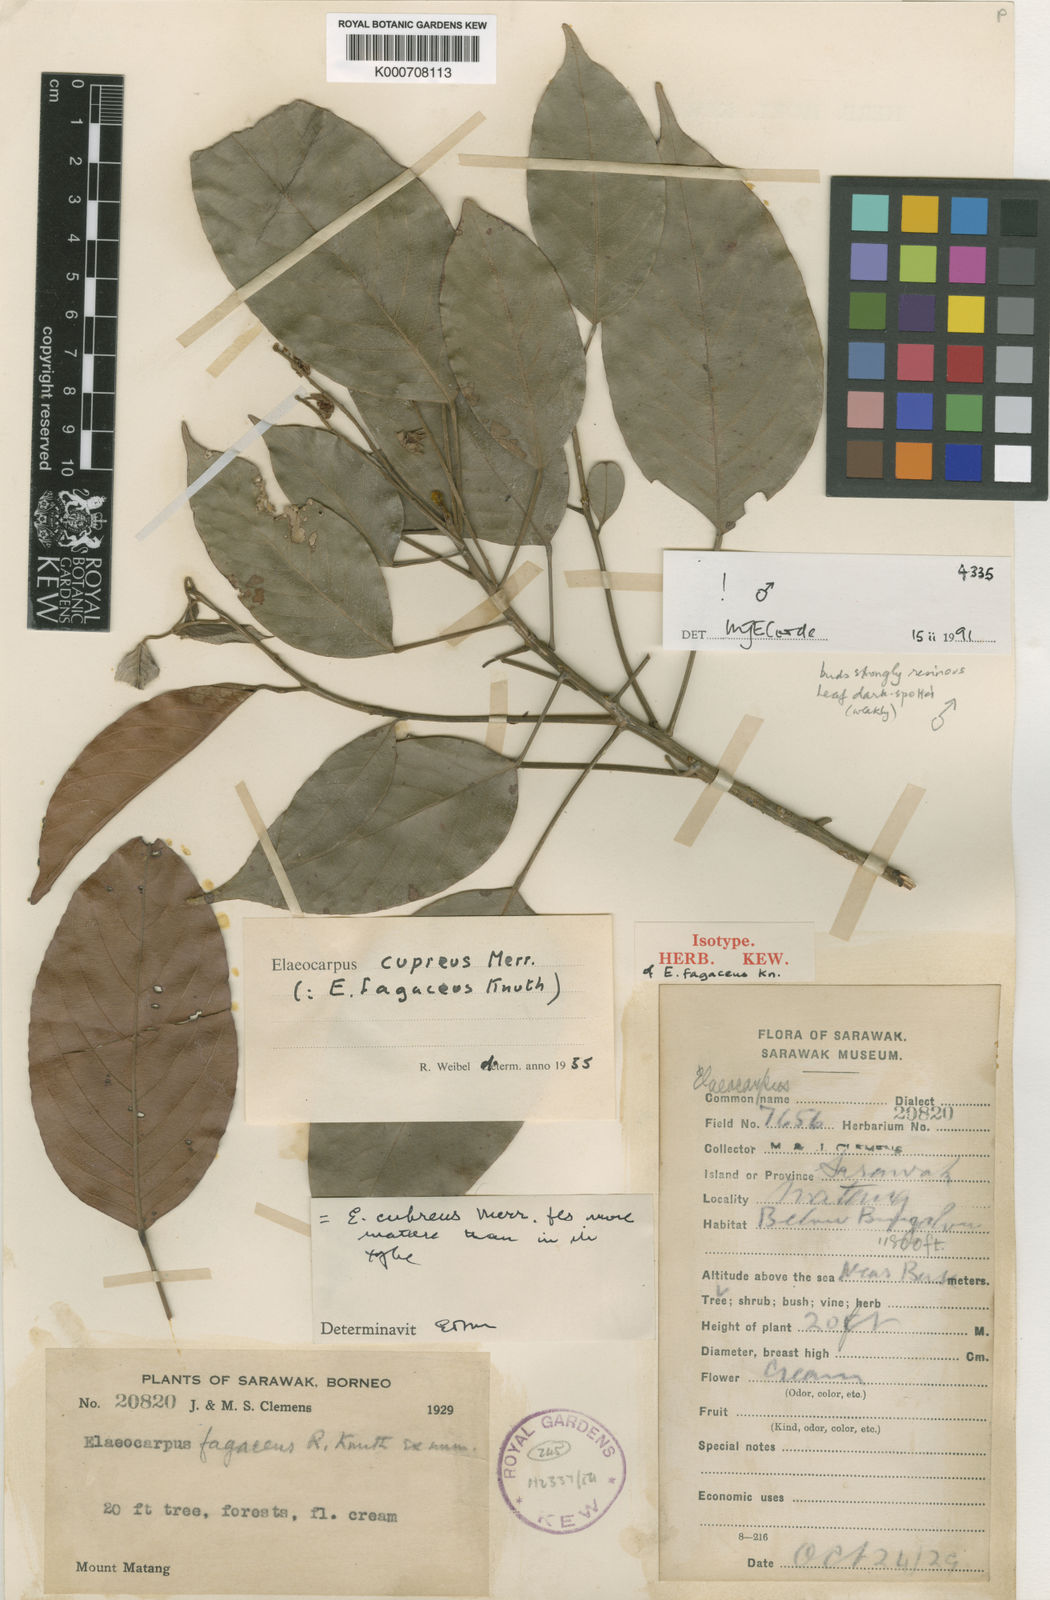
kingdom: Plantae
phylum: Tracheophyta
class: Magnoliopsida
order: Oxalidales
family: Elaeocarpaceae
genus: Elaeocarpus
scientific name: Elaeocarpus cupreus
